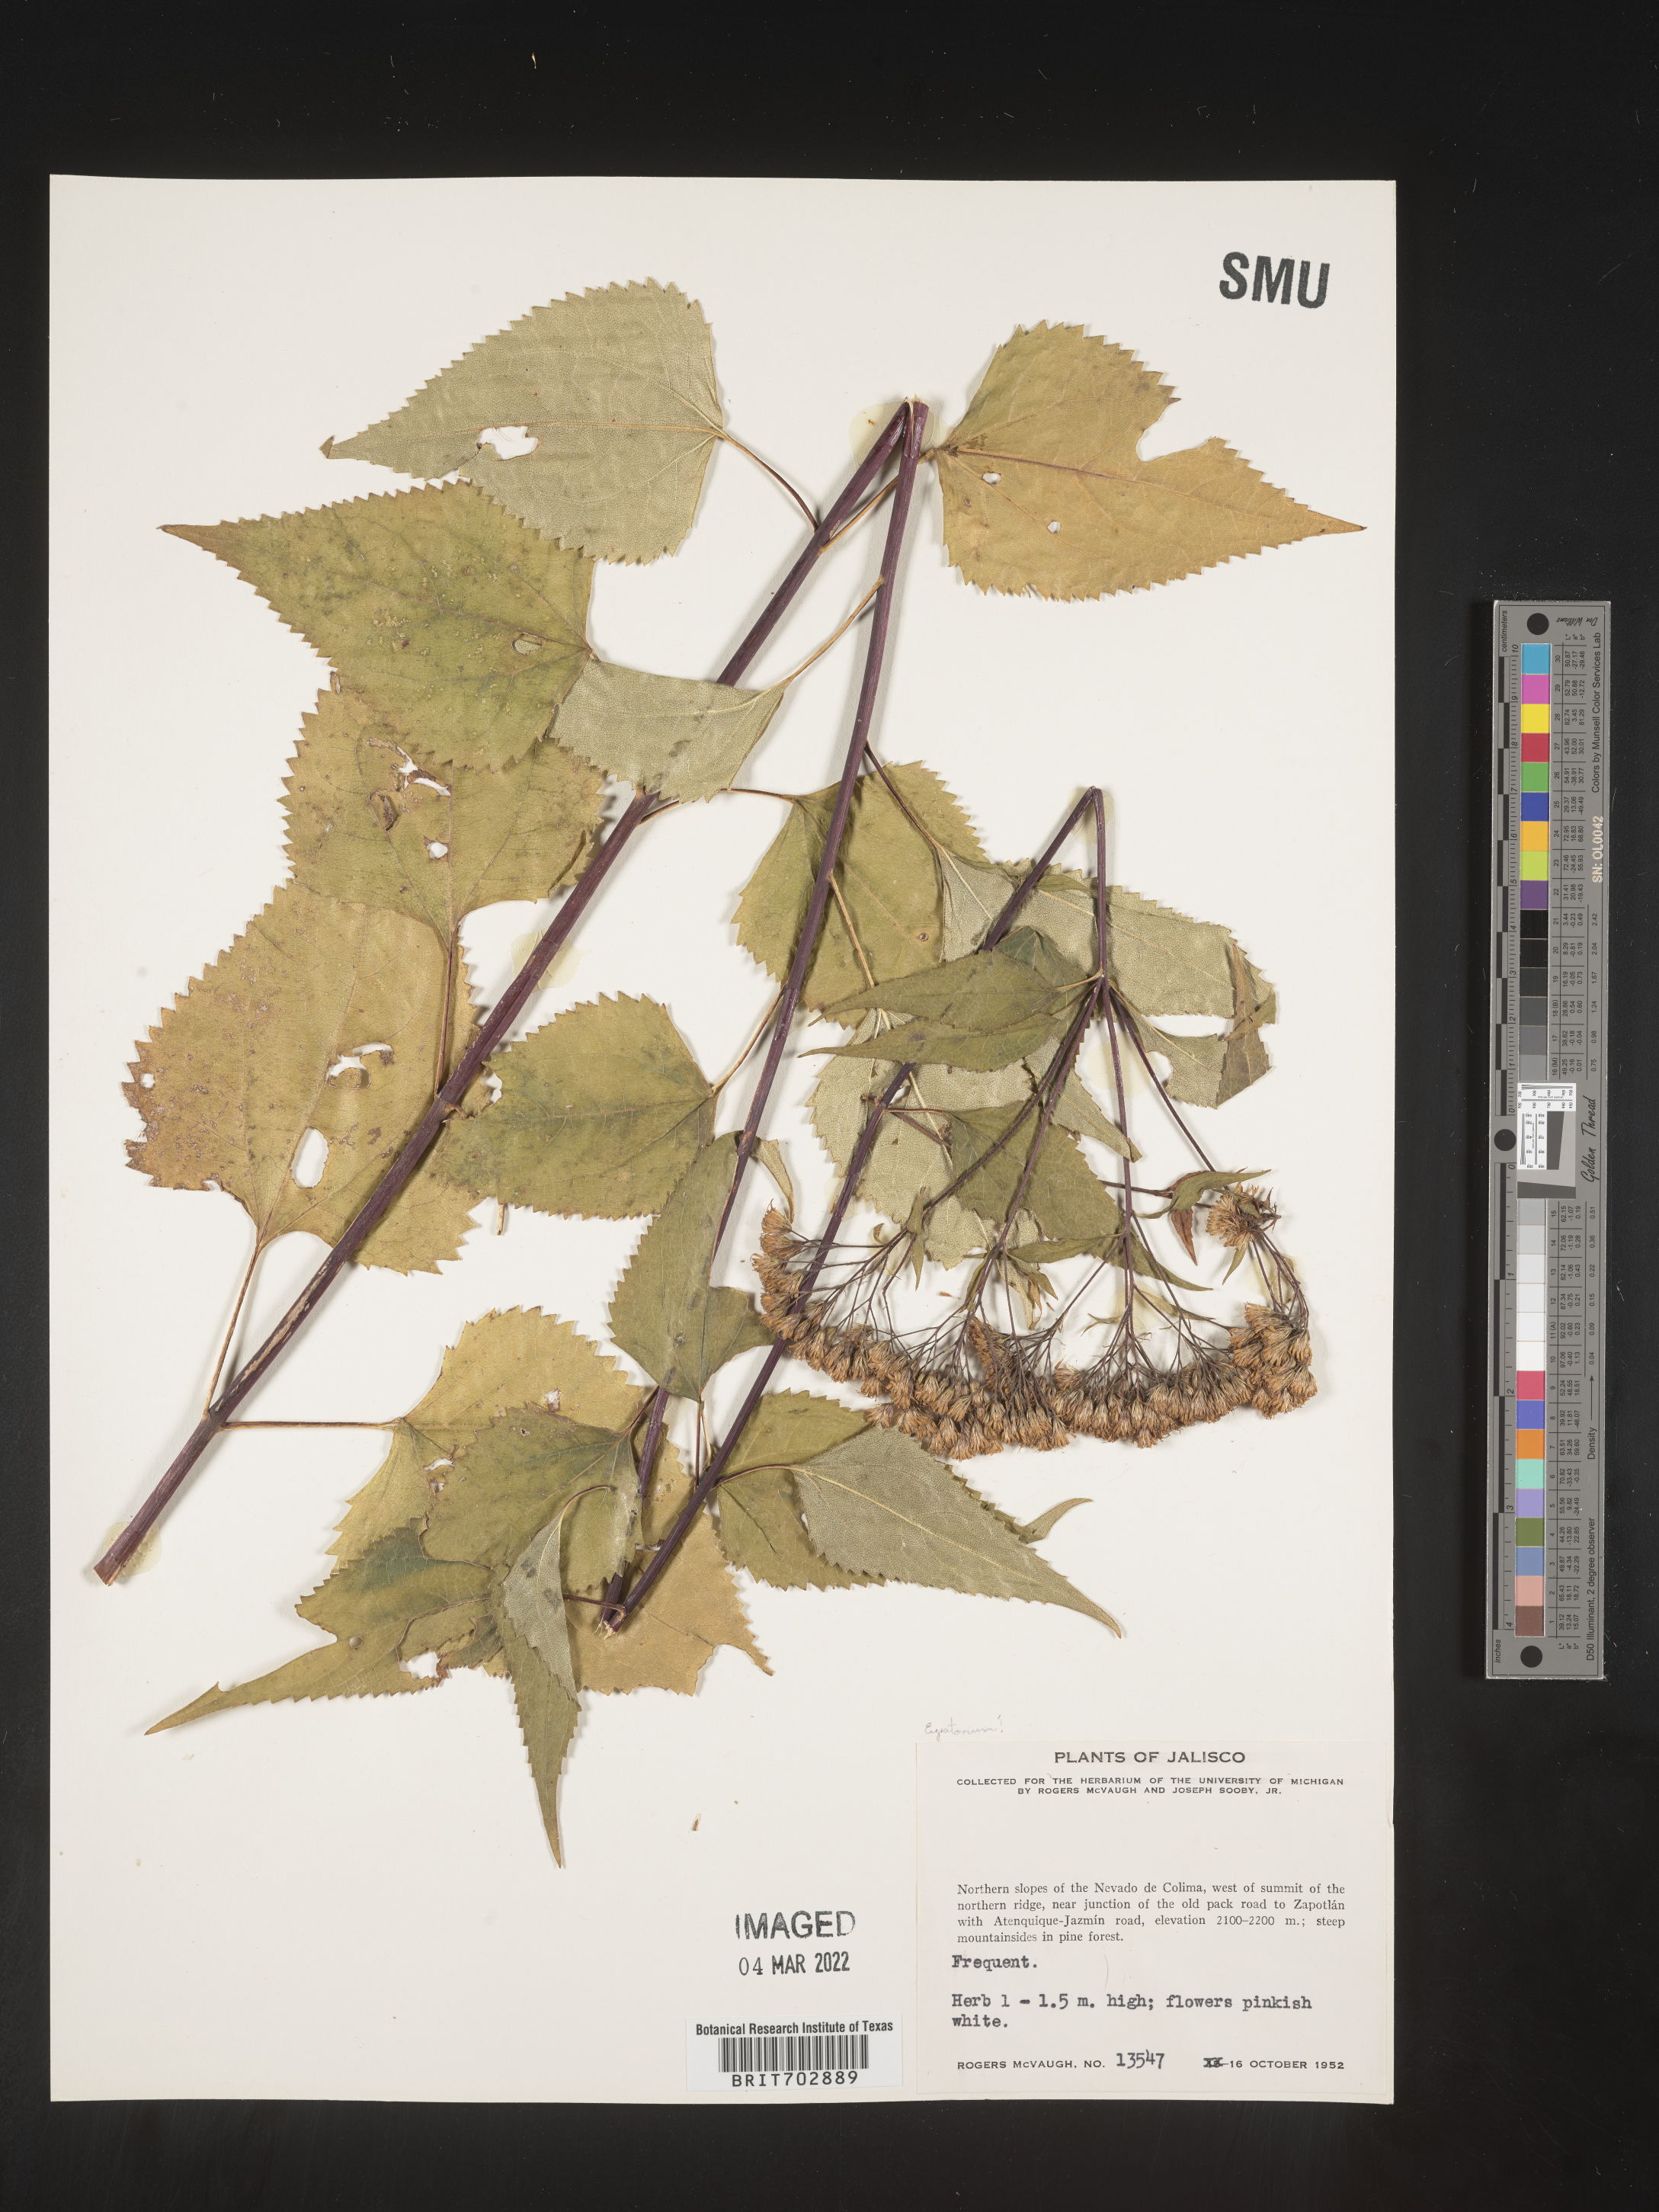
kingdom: Plantae
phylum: Tracheophyta
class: Magnoliopsida
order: Asterales
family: Asteraceae
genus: Eupatorium
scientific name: Eupatorium
